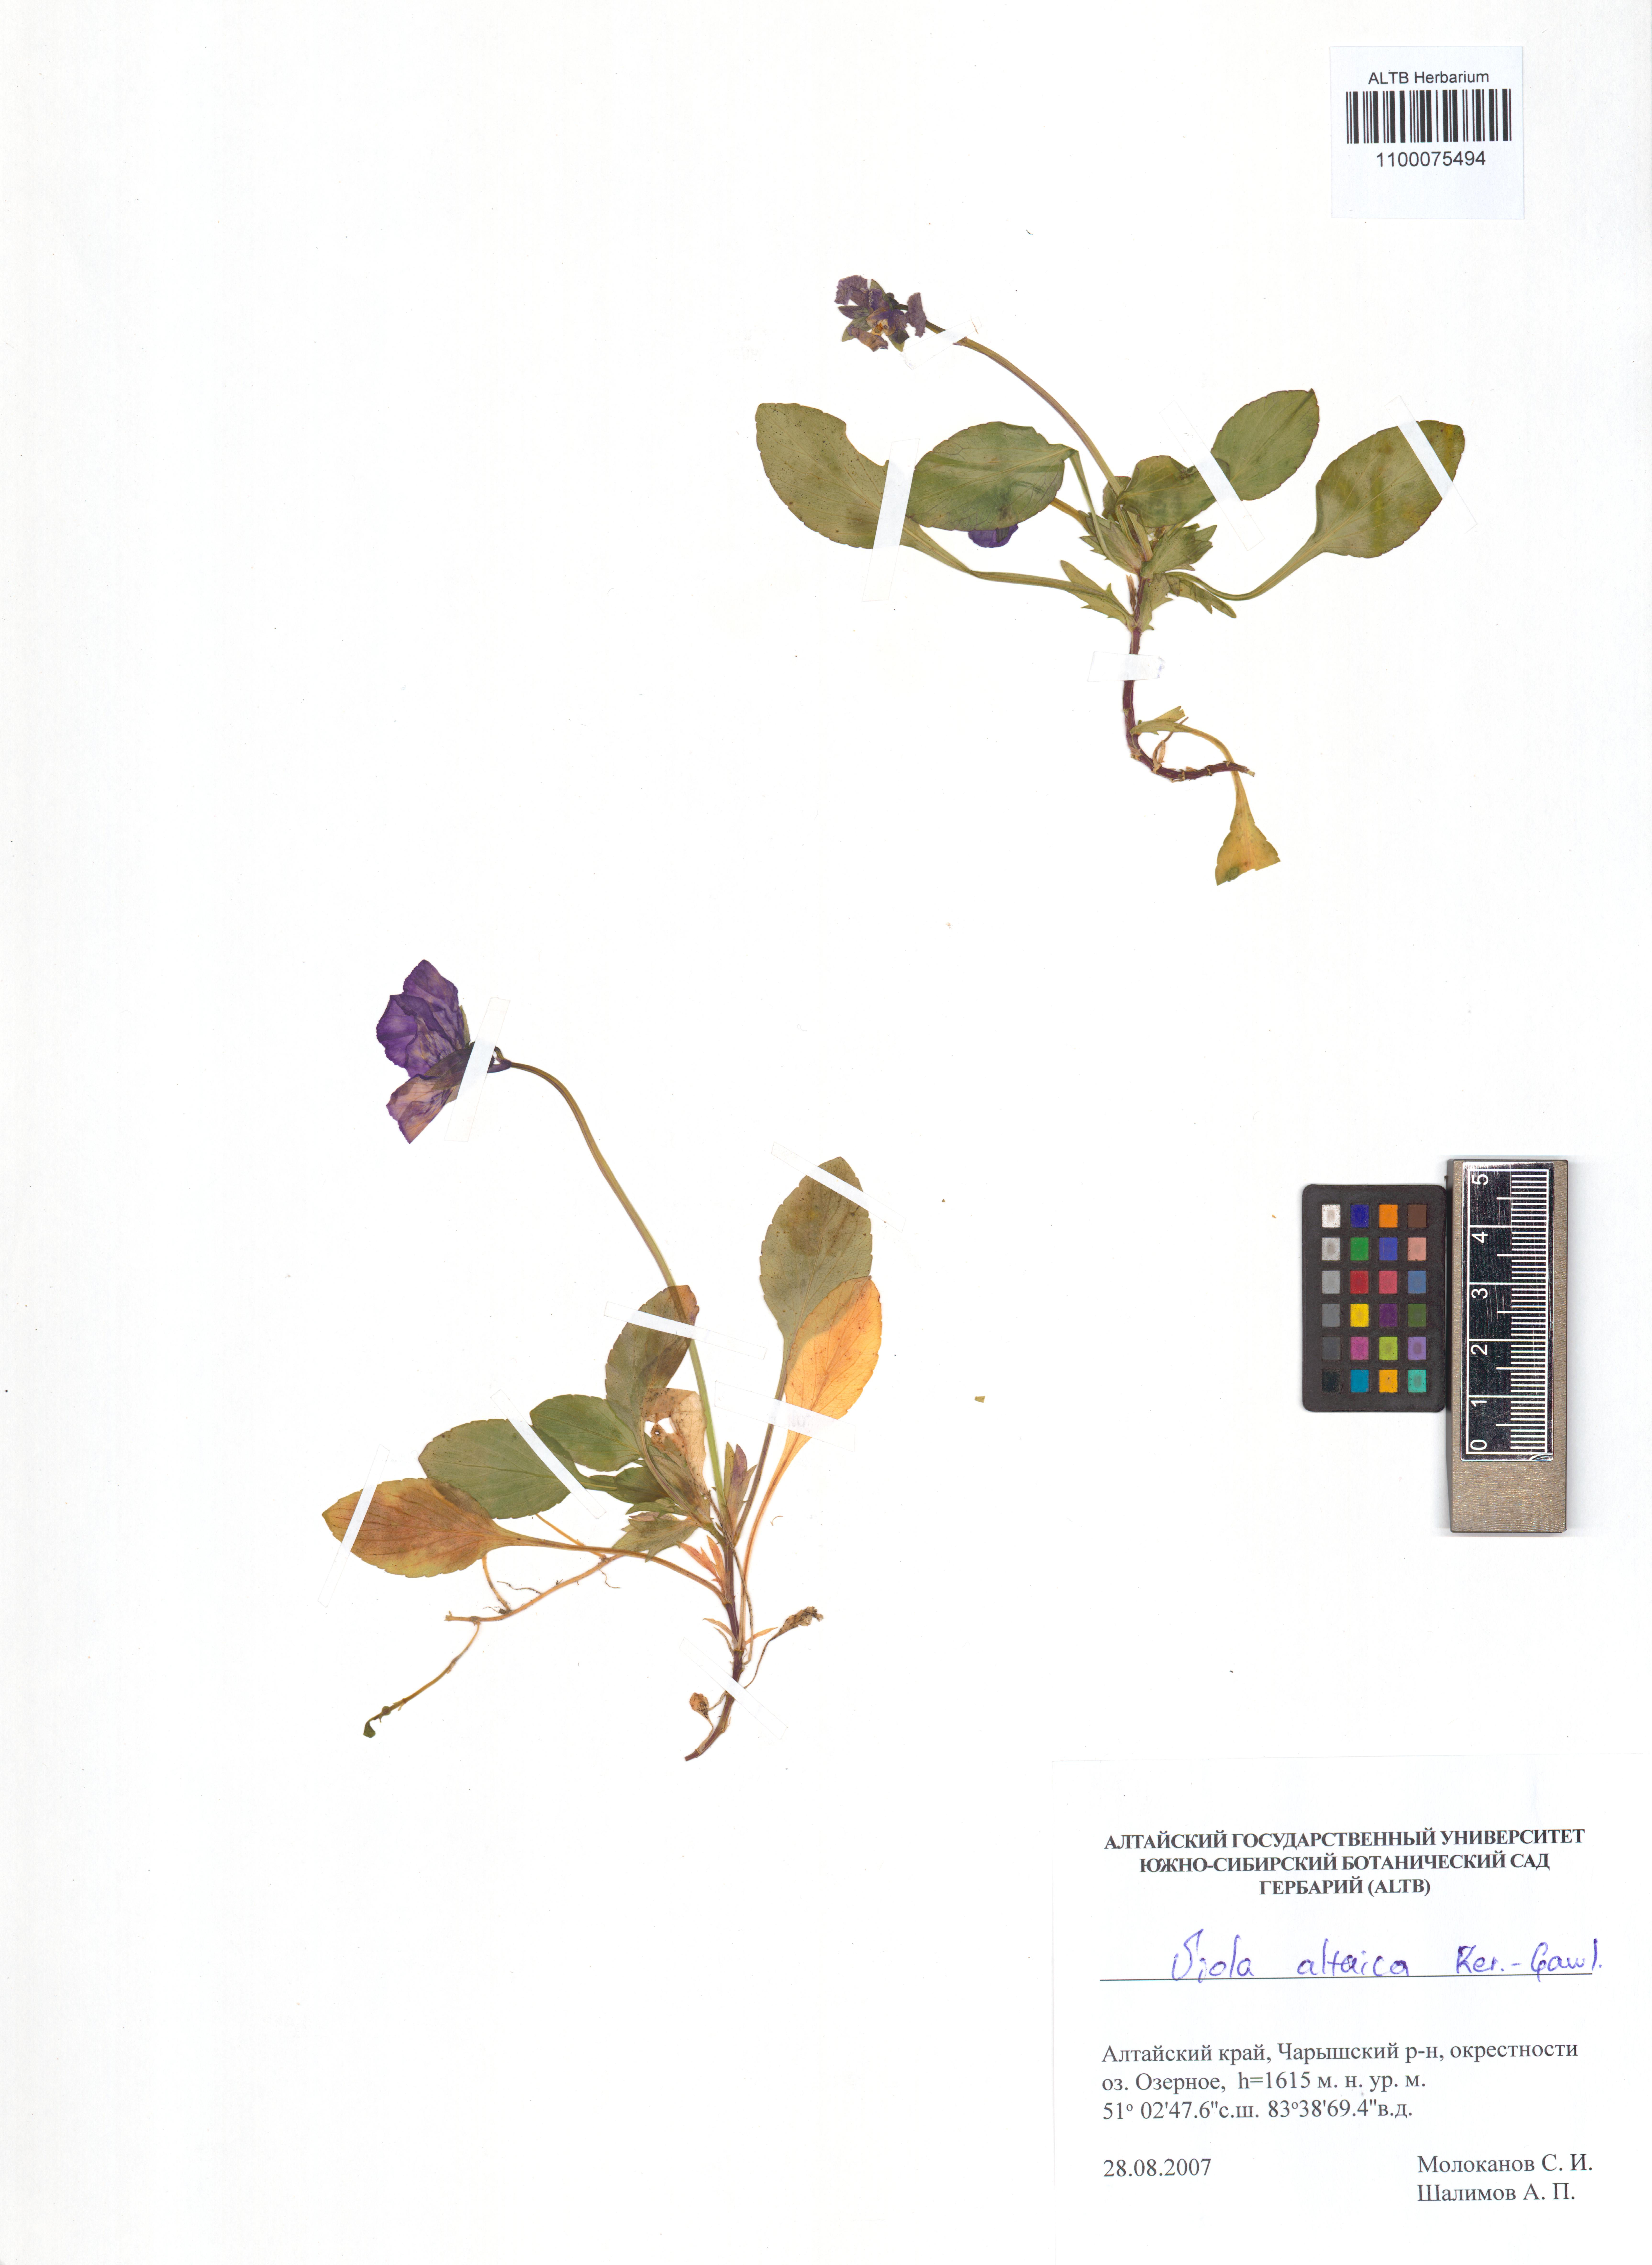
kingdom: Plantae
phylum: Tracheophyta
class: Magnoliopsida
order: Malpighiales
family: Violaceae
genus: Viola
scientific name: Viola altaica
